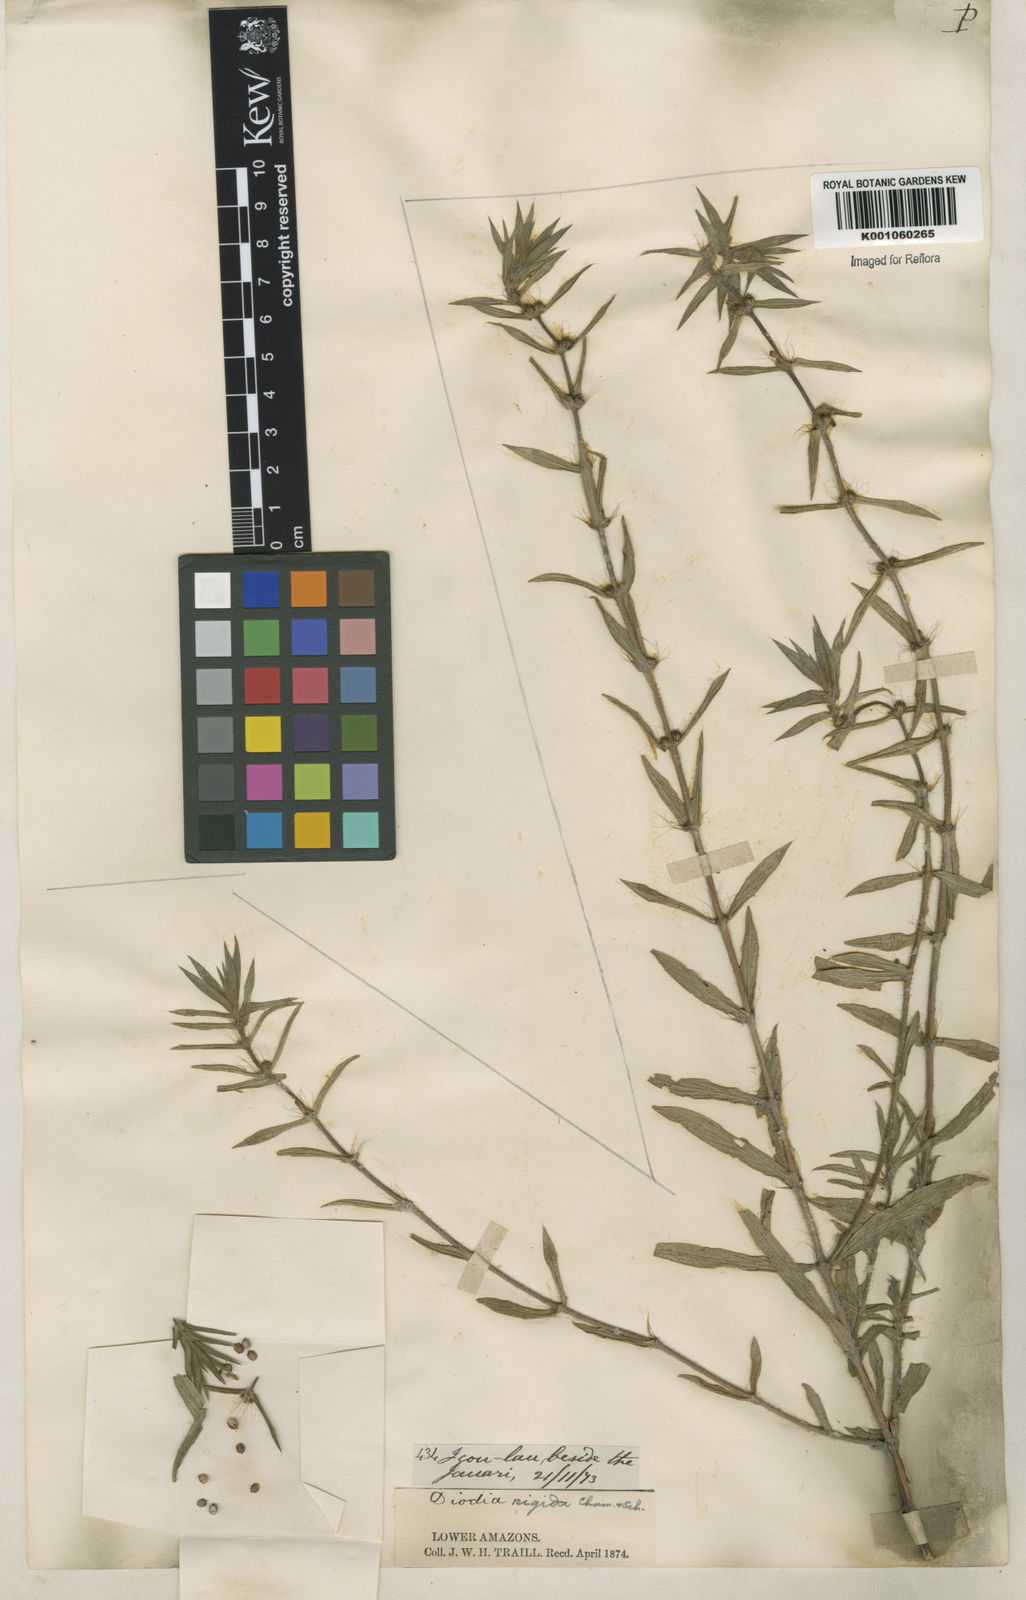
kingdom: Plantae
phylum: Tracheophyta
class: Magnoliopsida
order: Gentianales
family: Rubiaceae
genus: Hexasepalum
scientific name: Hexasepalum apiculatum
